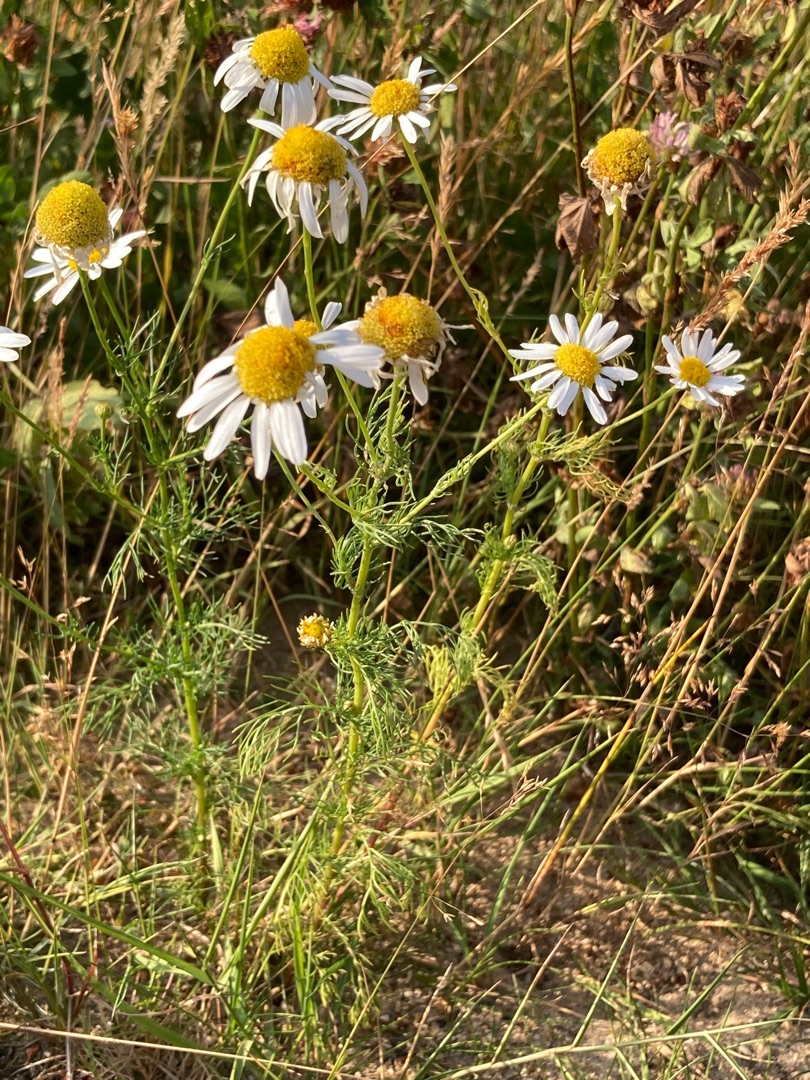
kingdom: Plantae
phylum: Tracheophyta
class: Magnoliopsida
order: Asterales
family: Asteraceae
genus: Tripleurospermum
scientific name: Tripleurospermum inodorum
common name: Lugtløs kamille
